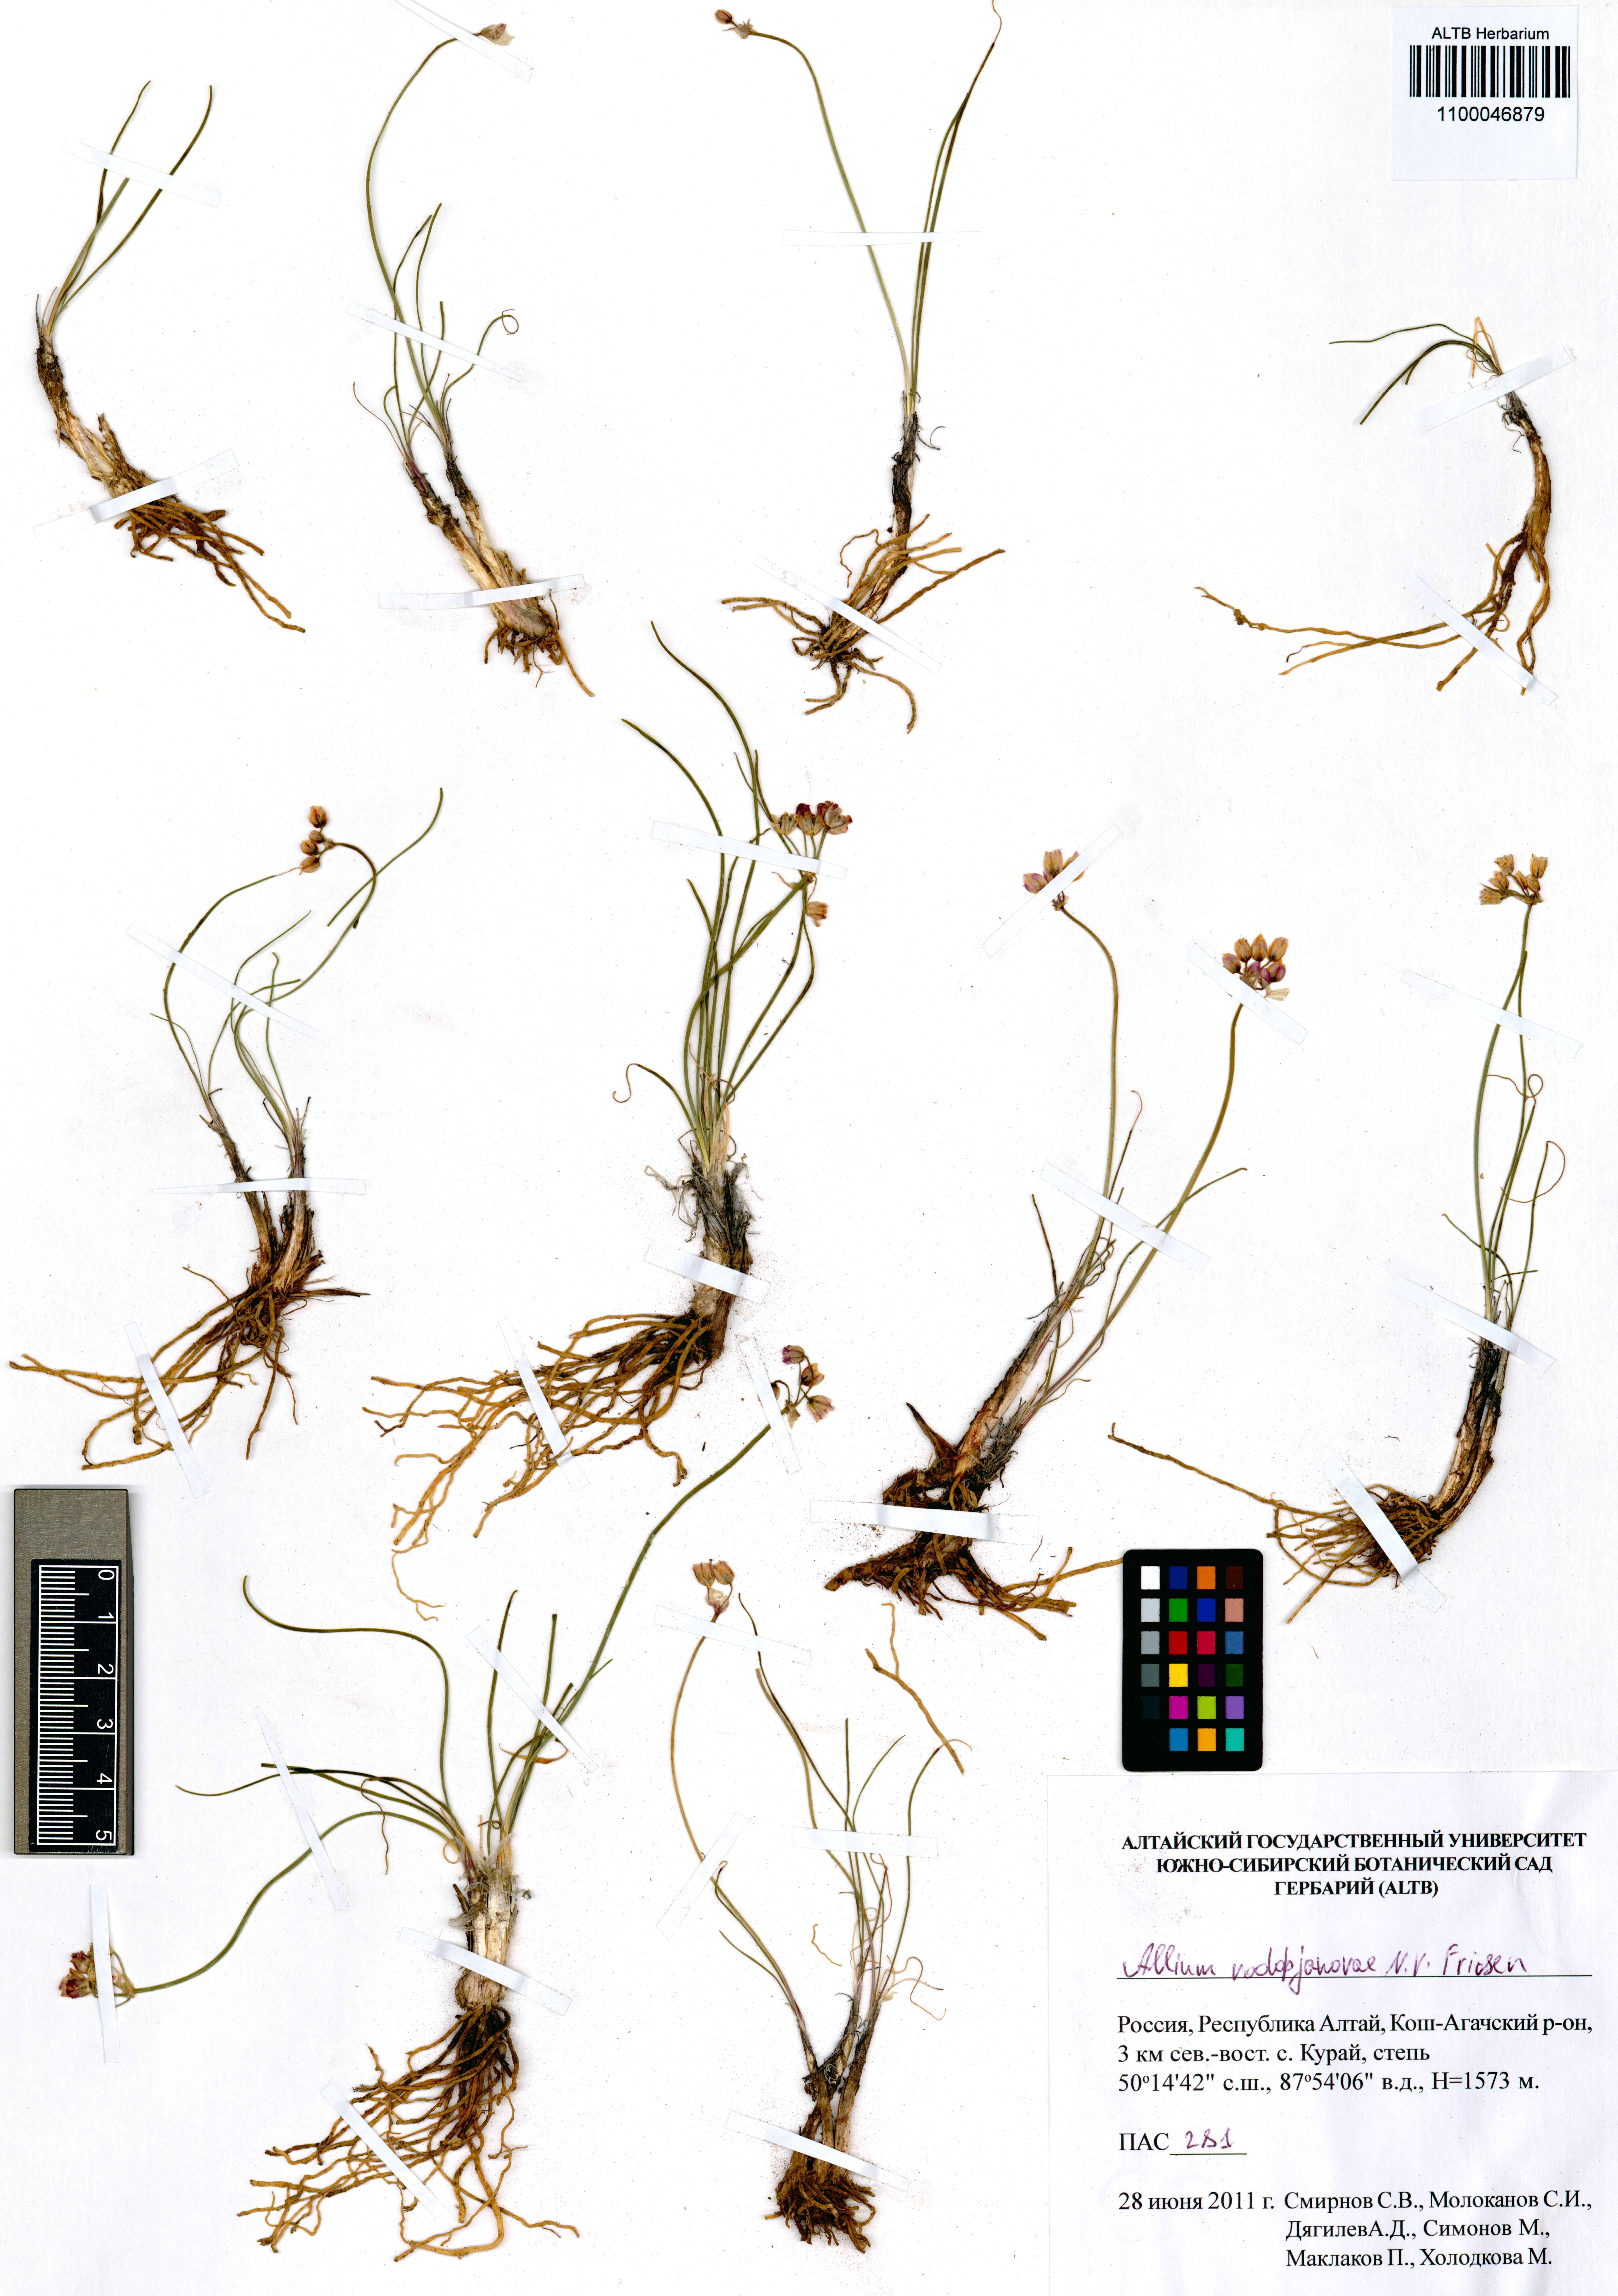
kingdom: Plantae
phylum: Tracheophyta
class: Liliopsida
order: Asparagales
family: Amaryllidaceae
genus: Allium
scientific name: Allium vodopjanovae
